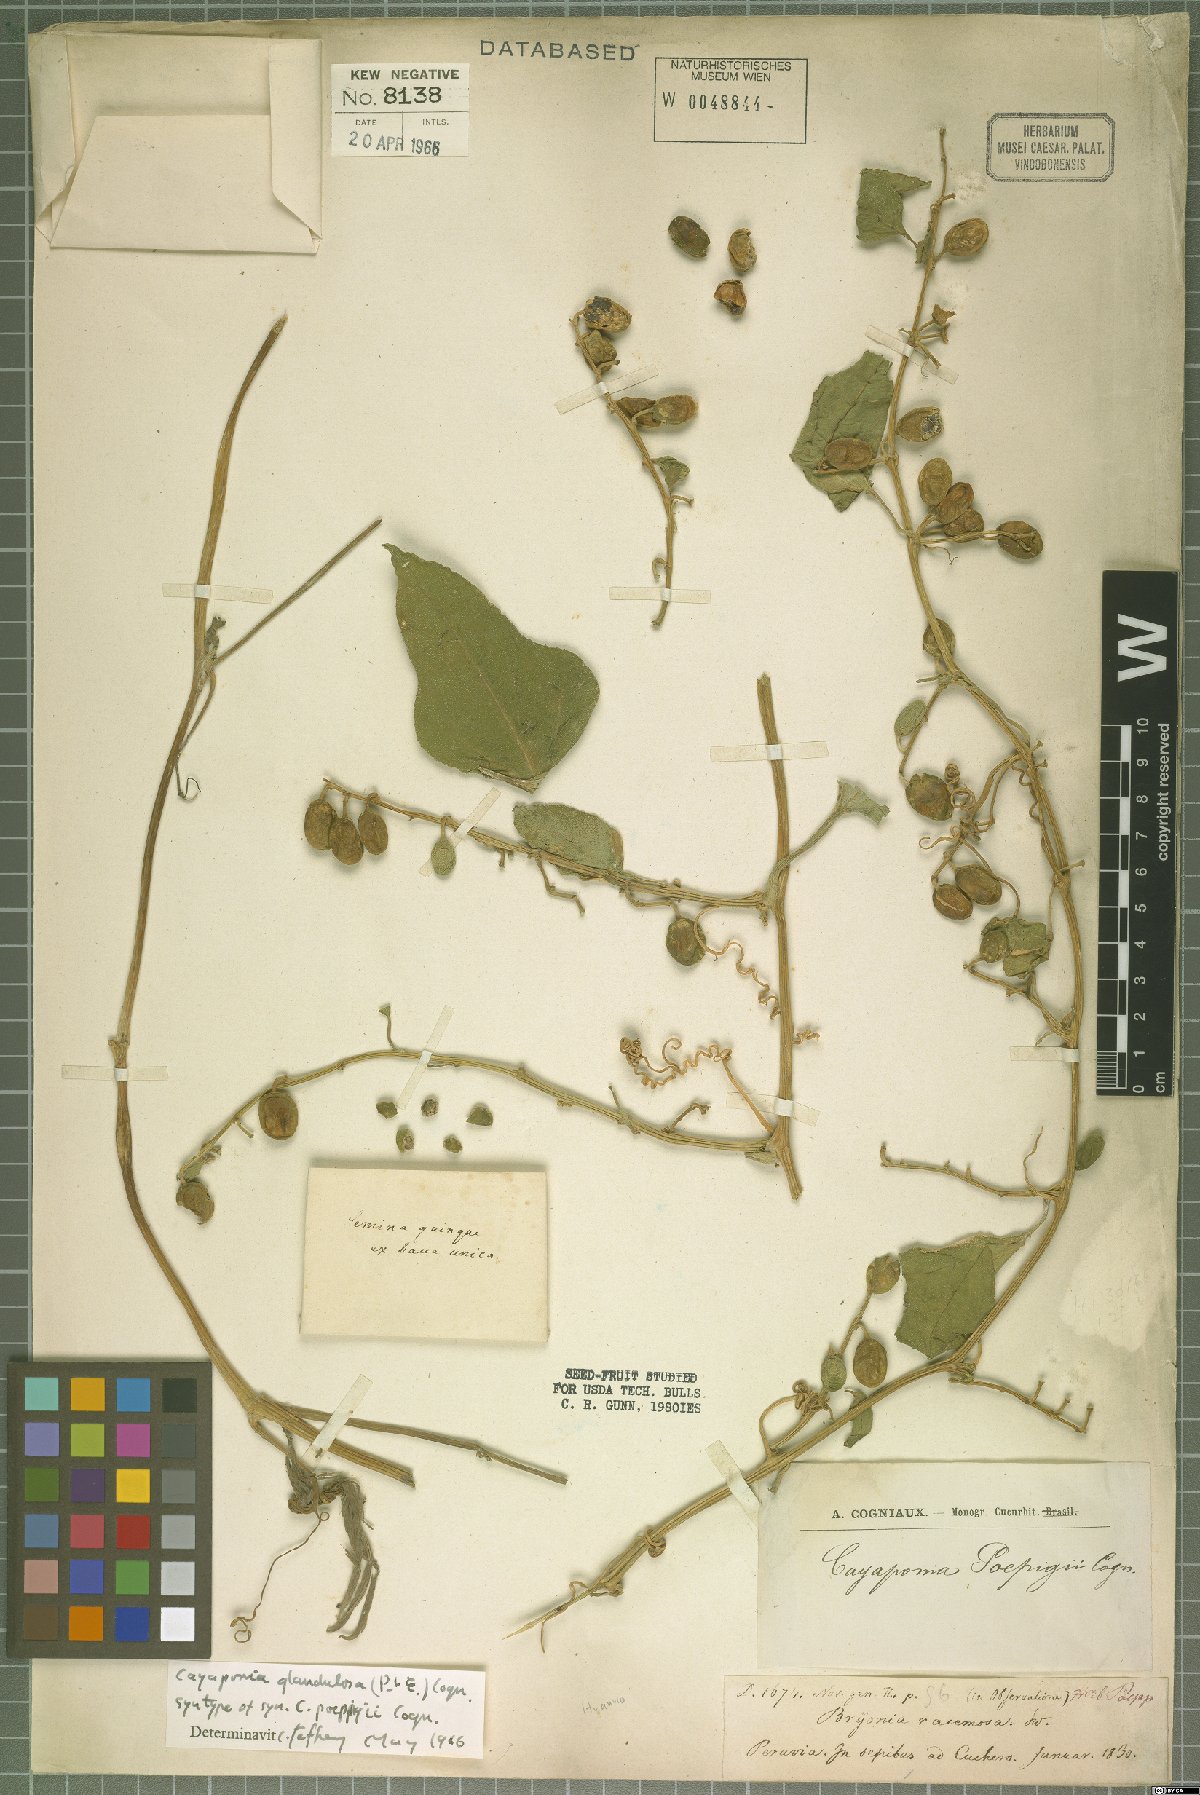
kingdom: Plantae
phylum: Tracheophyta
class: Magnoliopsida
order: Cucurbitales
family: Cucurbitaceae
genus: Cayaponia
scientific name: Cayaponia glandulosa
